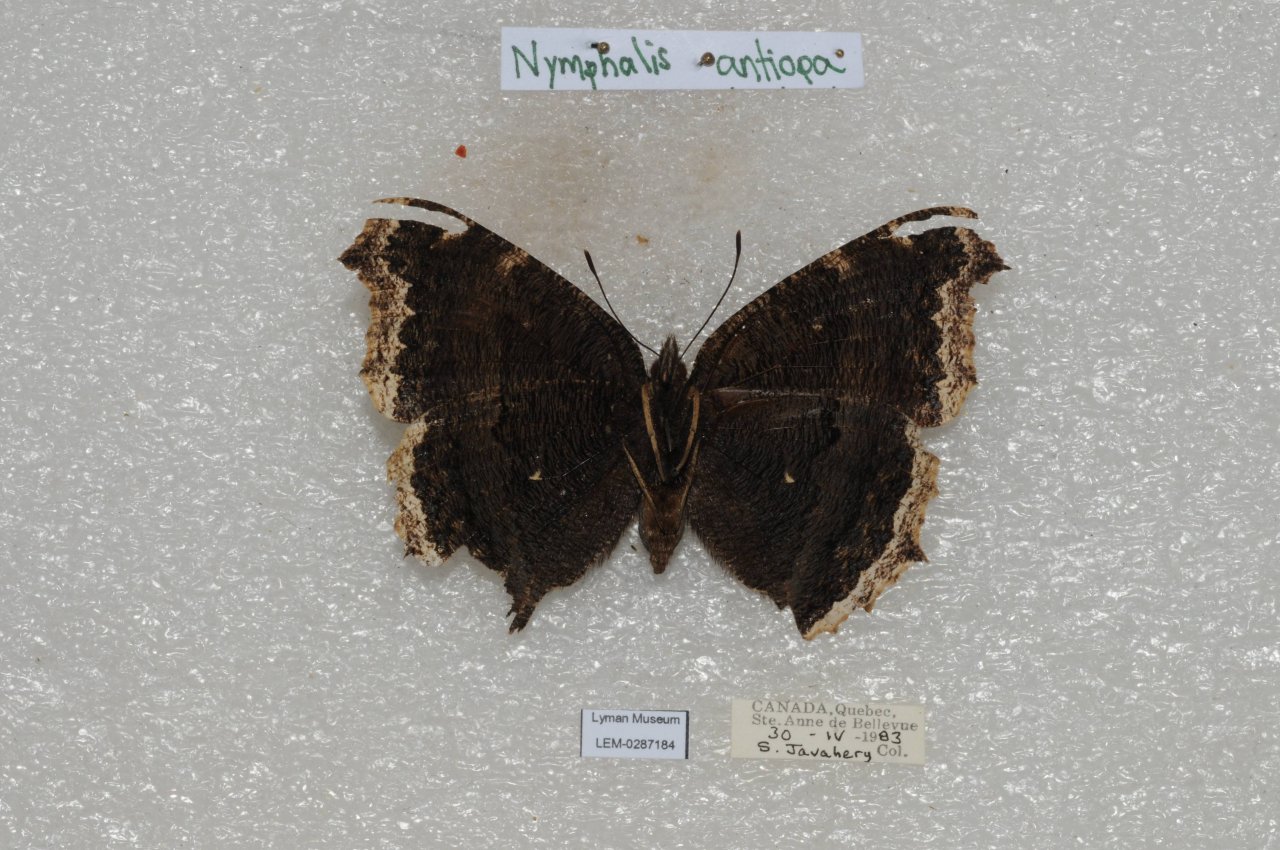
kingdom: Animalia
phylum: Arthropoda
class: Insecta
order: Lepidoptera
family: Nymphalidae
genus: Nymphalis
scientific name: Nymphalis antiopa
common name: Mourning Cloak
